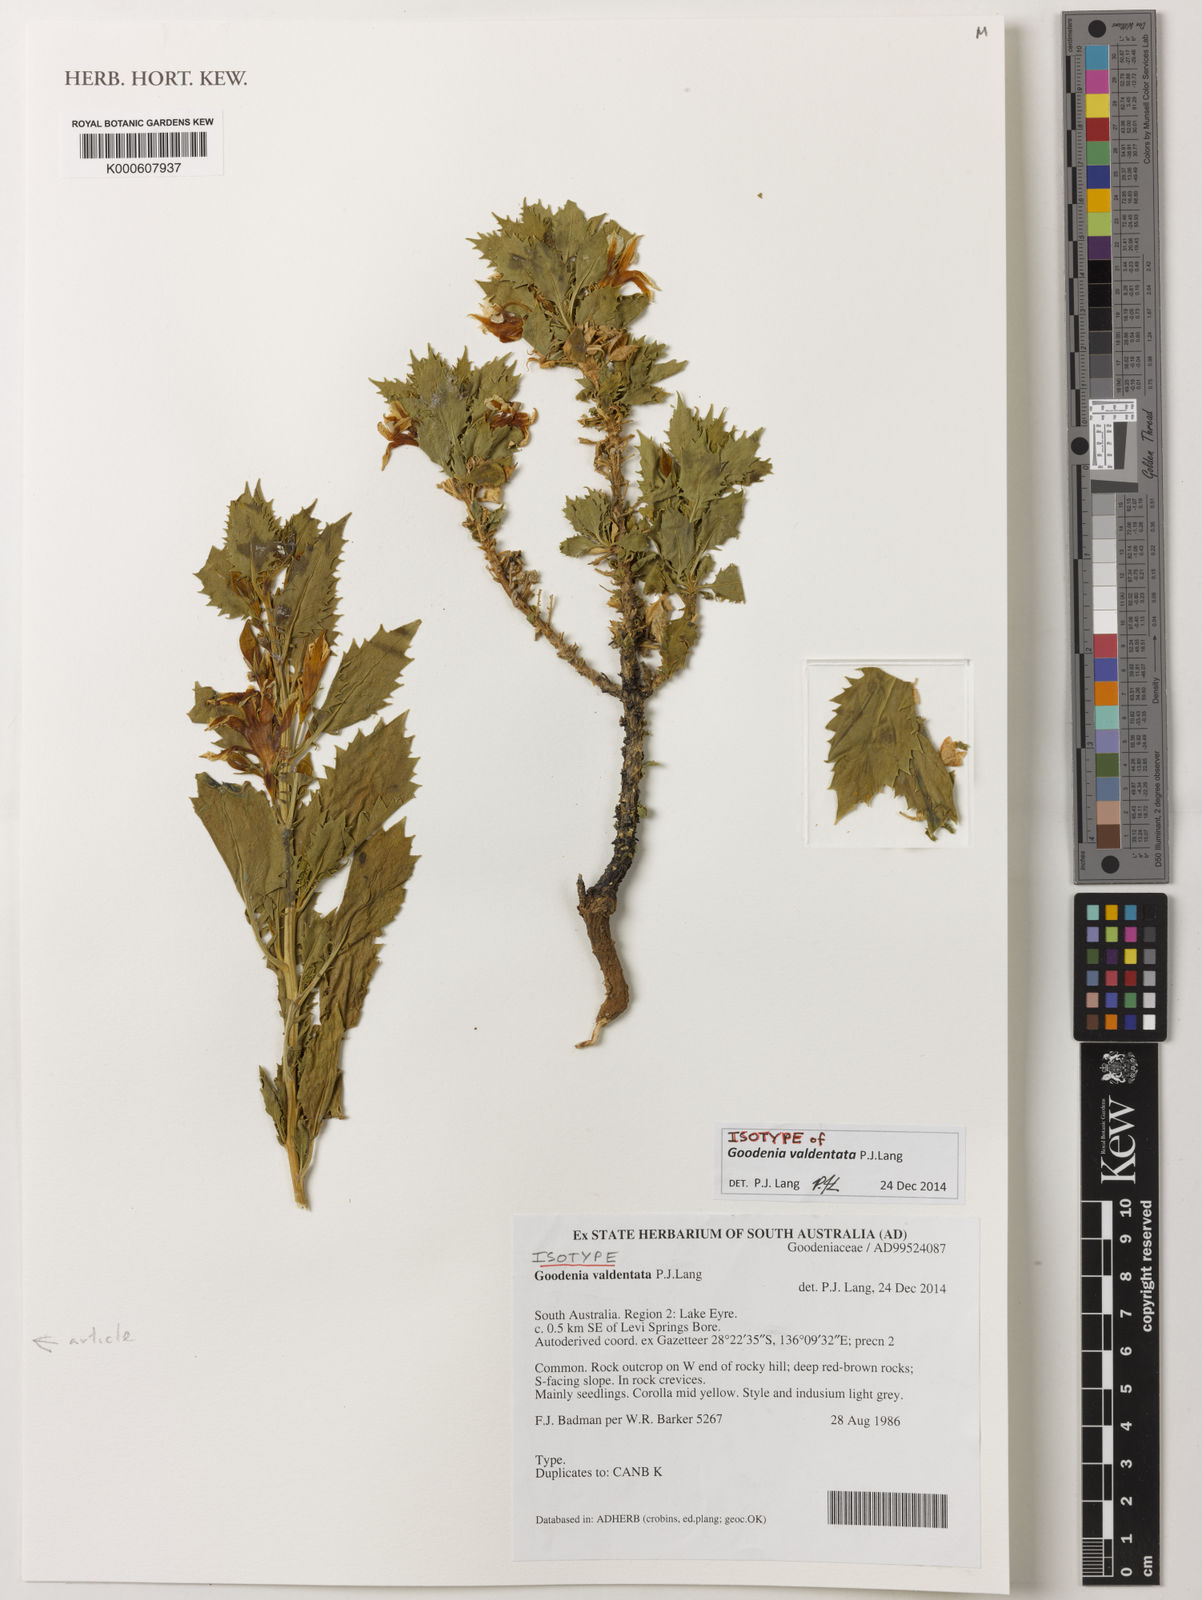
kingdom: Plantae
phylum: Tracheophyta
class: Magnoliopsida
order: Asterales
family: Goodeniaceae
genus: Goodenia
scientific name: Goodenia valdentata
